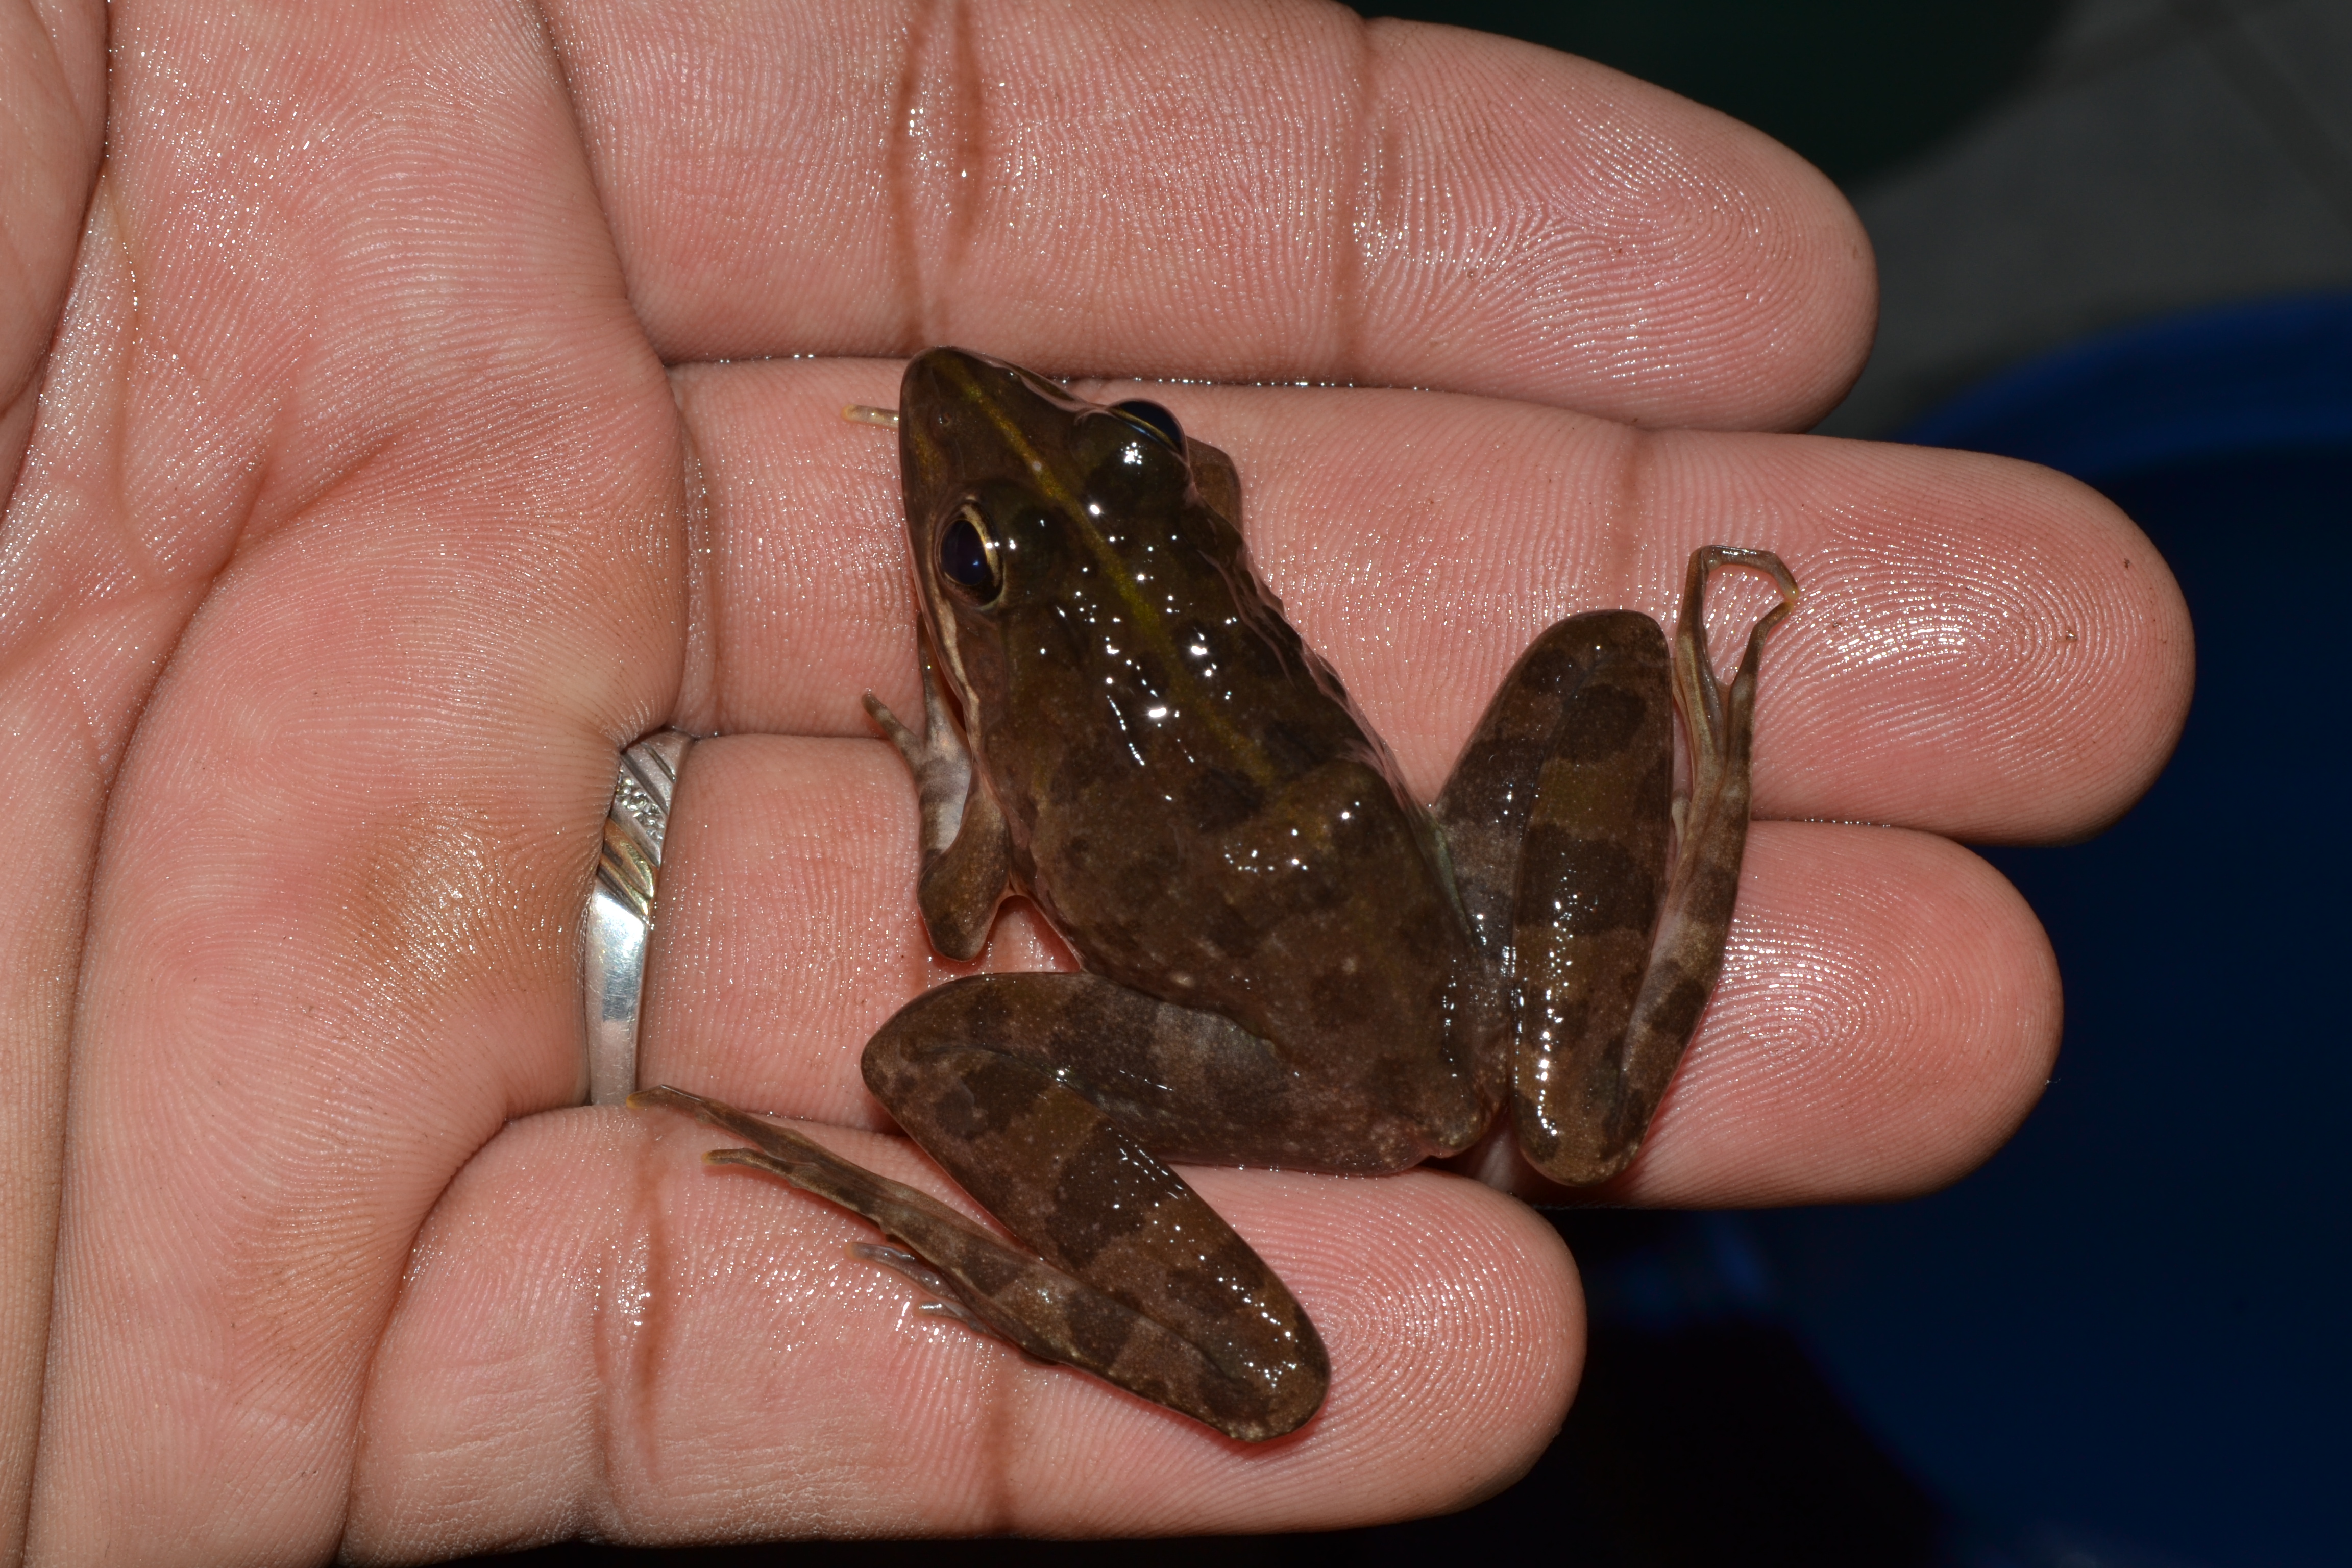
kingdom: Animalia
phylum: Chordata
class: Amphibia
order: Anura
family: Pyxicephalidae
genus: Amietia
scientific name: Amietia
